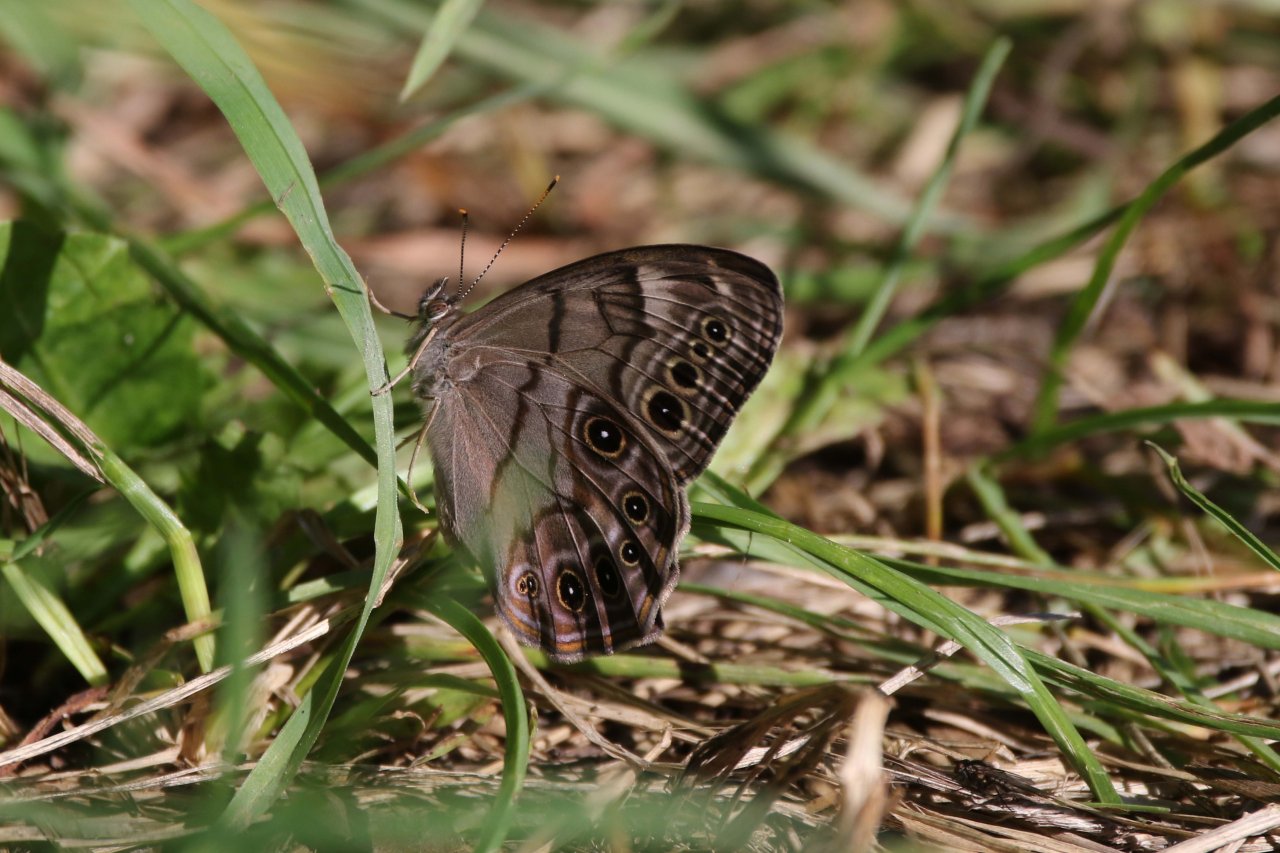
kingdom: Animalia
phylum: Arthropoda
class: Insecta
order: Lepidoptera
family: Nymphalidae
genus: Lethe
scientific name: Lethe anthedon
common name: Northern Pearly-Eye
